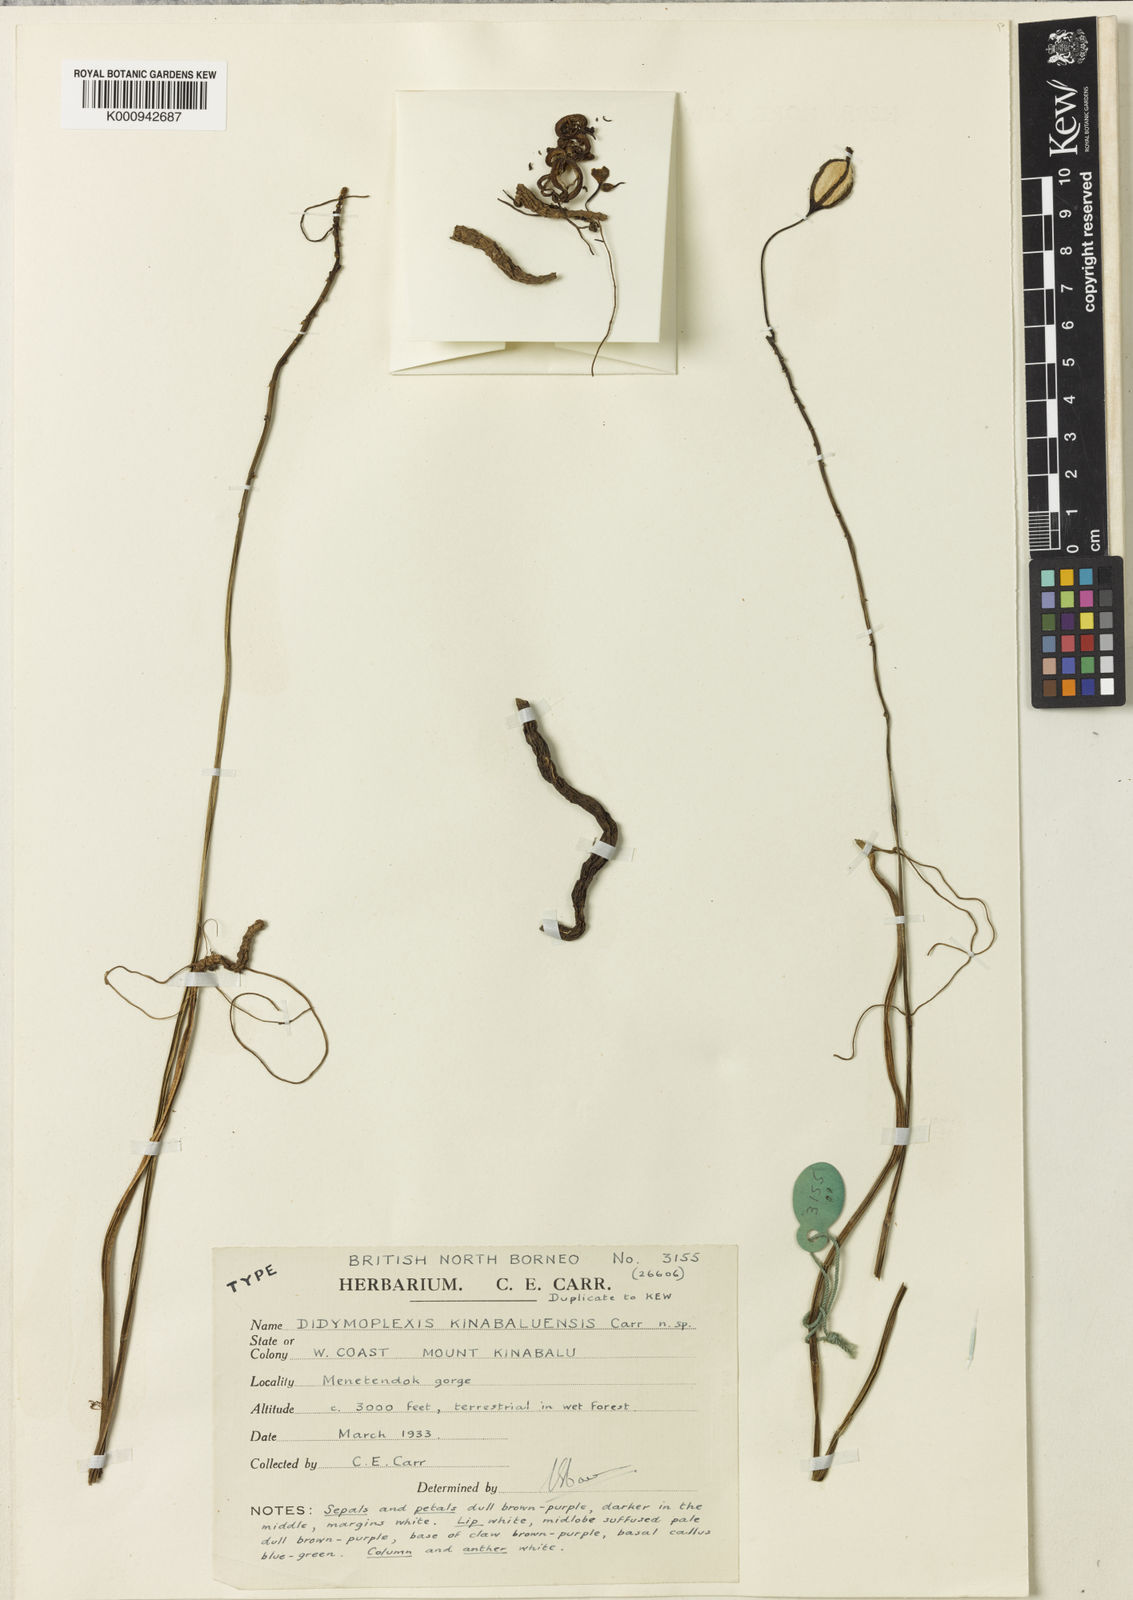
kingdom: Plantae
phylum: Tracheophyta
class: Liliopsida
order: Asparagales
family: Orchidaceae
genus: Didymoplexiella
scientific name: Didymoplexiella kinabaluensis
